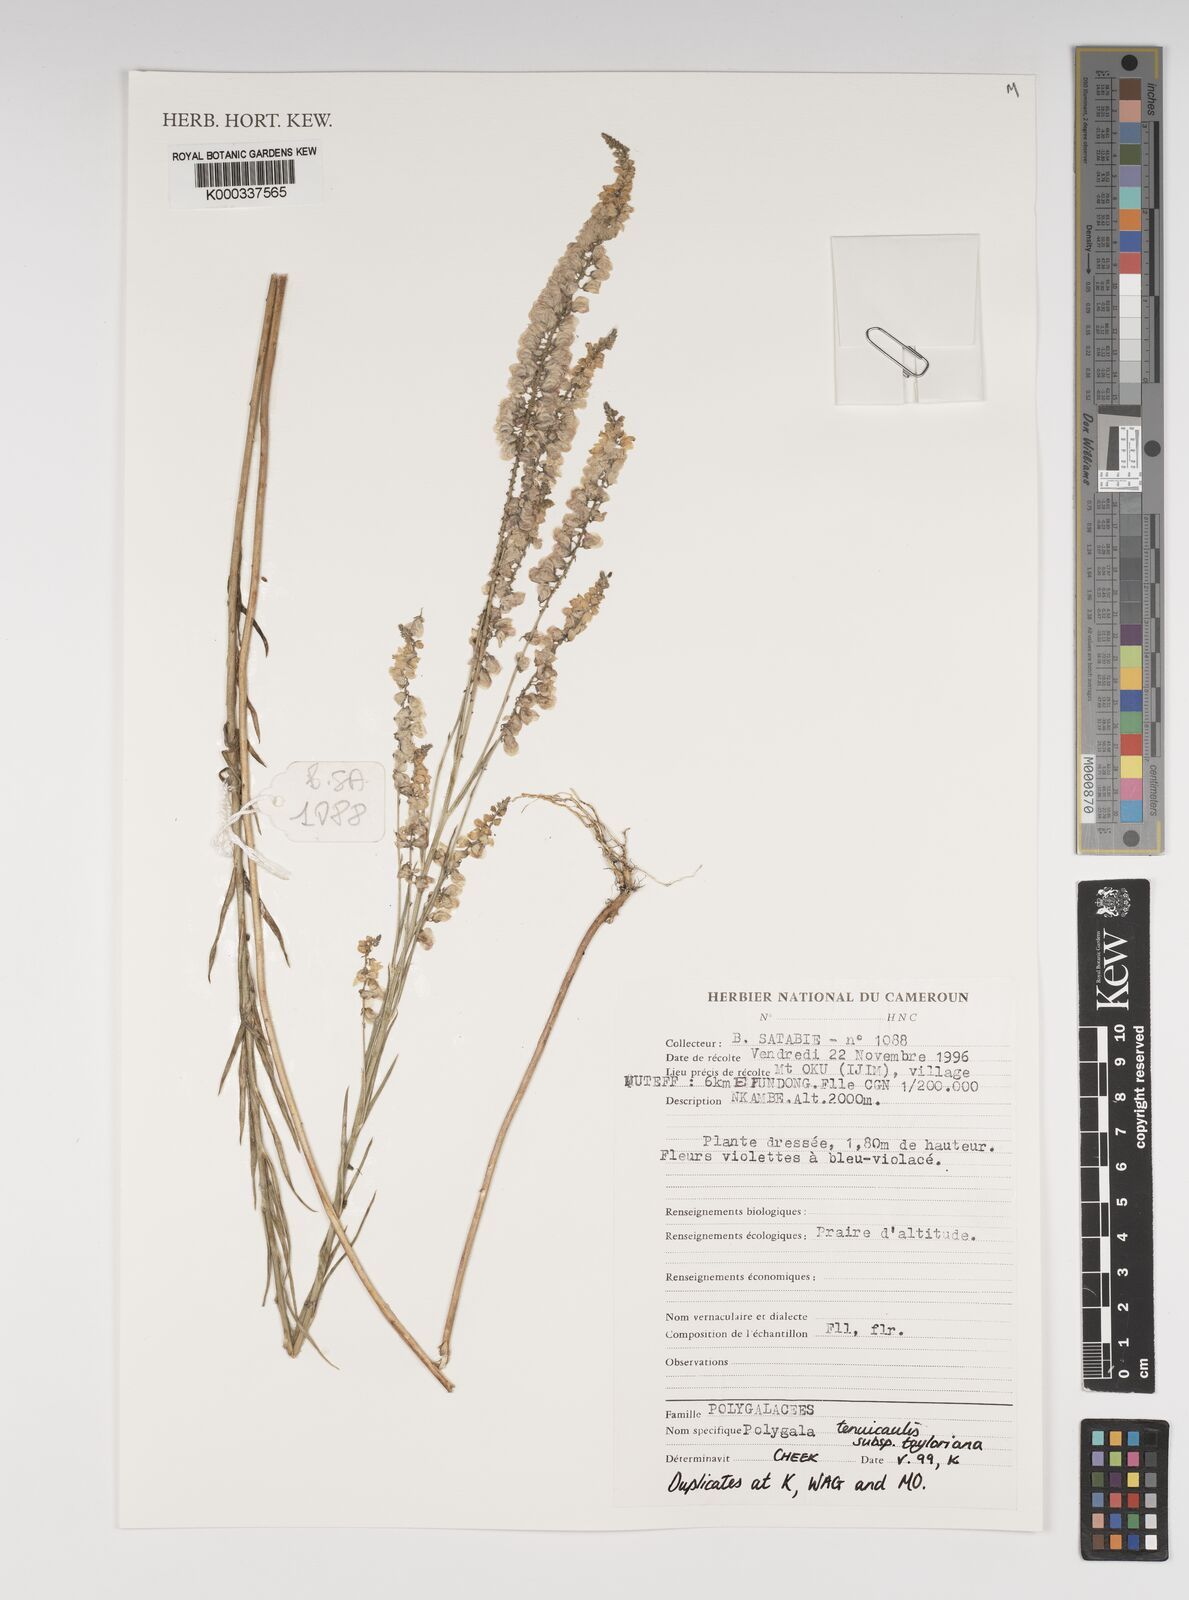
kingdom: Plantae
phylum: Tracheophyta
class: Magnoliopsida
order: Fabales
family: Polygalaceae
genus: Polygala
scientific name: Polygala tenuicaulis
